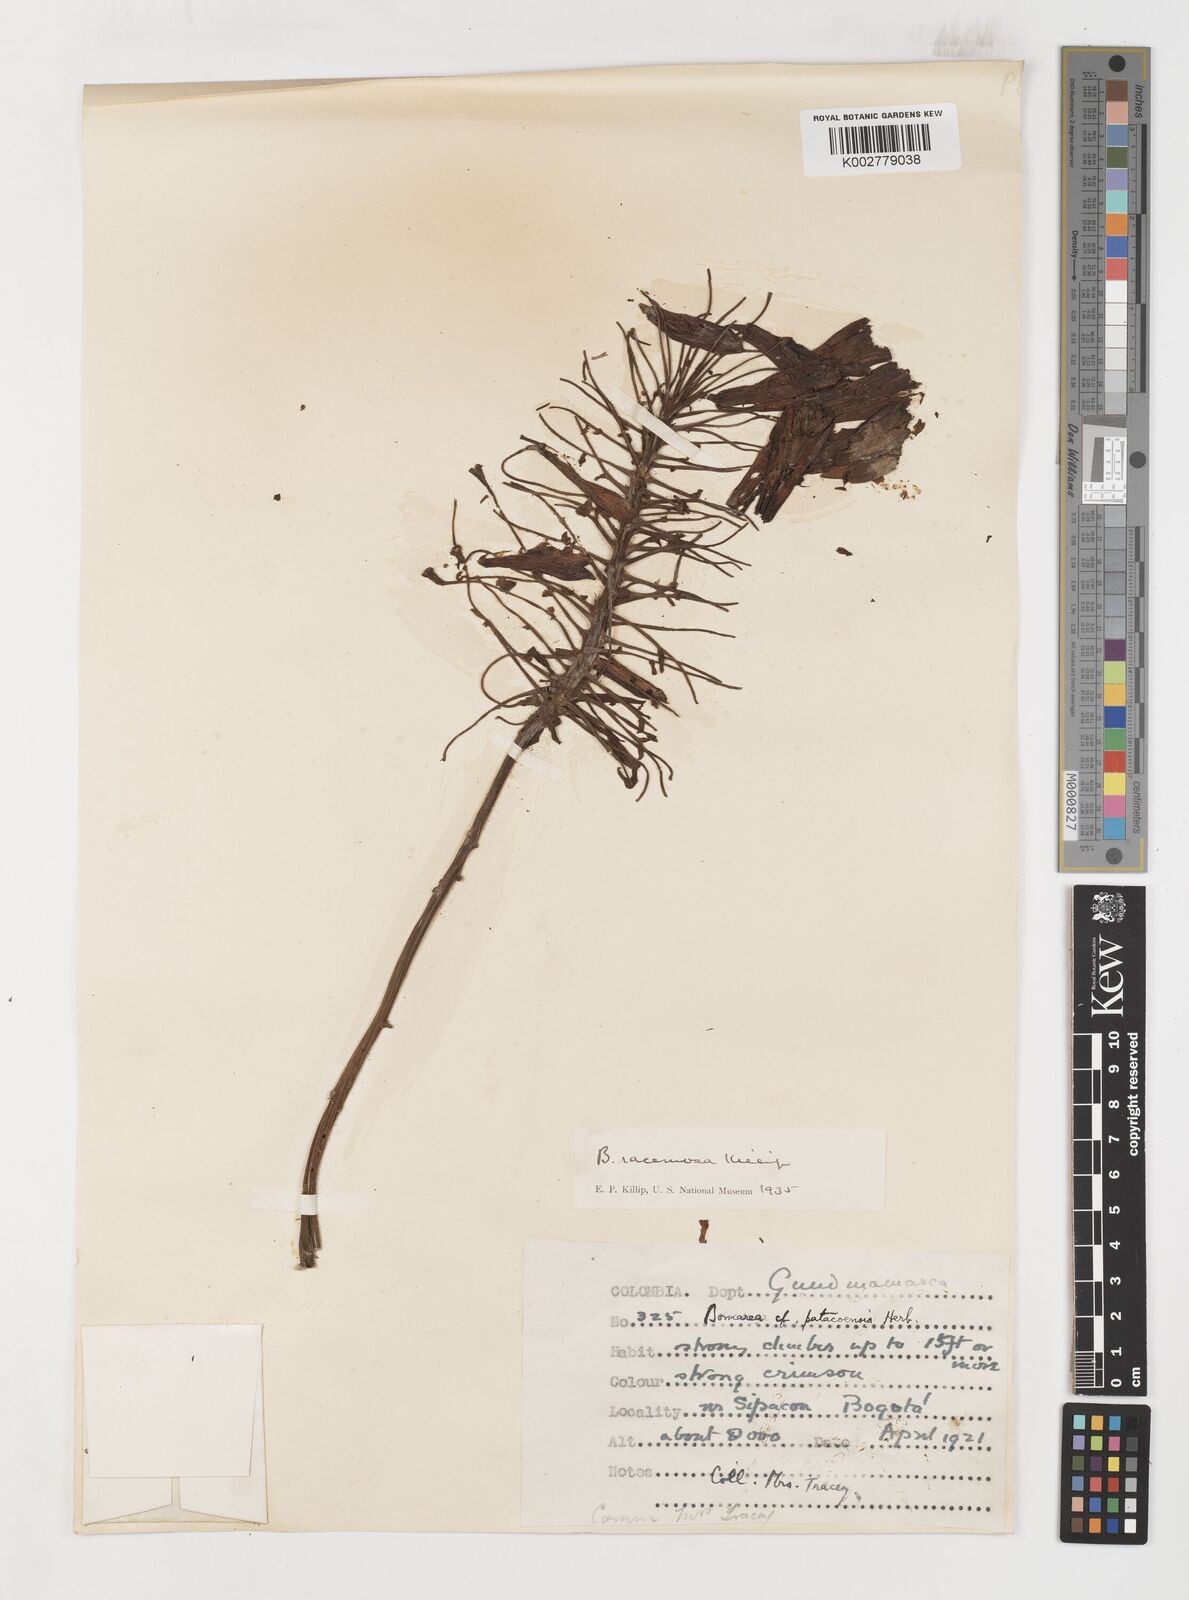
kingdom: Plantae
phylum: Tracheophyta
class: Liliopsida
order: Liliales
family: Alstroemeriaceae
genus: Bomarea
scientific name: Bomarea patinii
